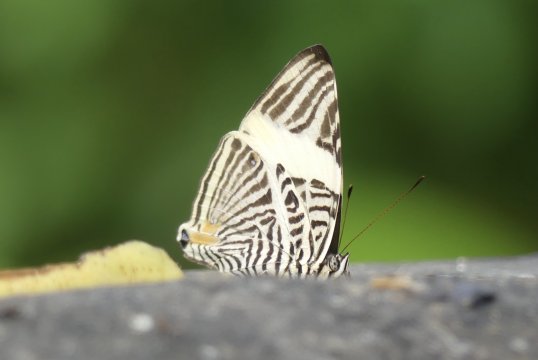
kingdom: Animalia
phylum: Arthropoda
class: Insecta
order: Lepidoptera
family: Nymphalidae
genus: Colobura
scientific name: Colobura annulata
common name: New Beauty
